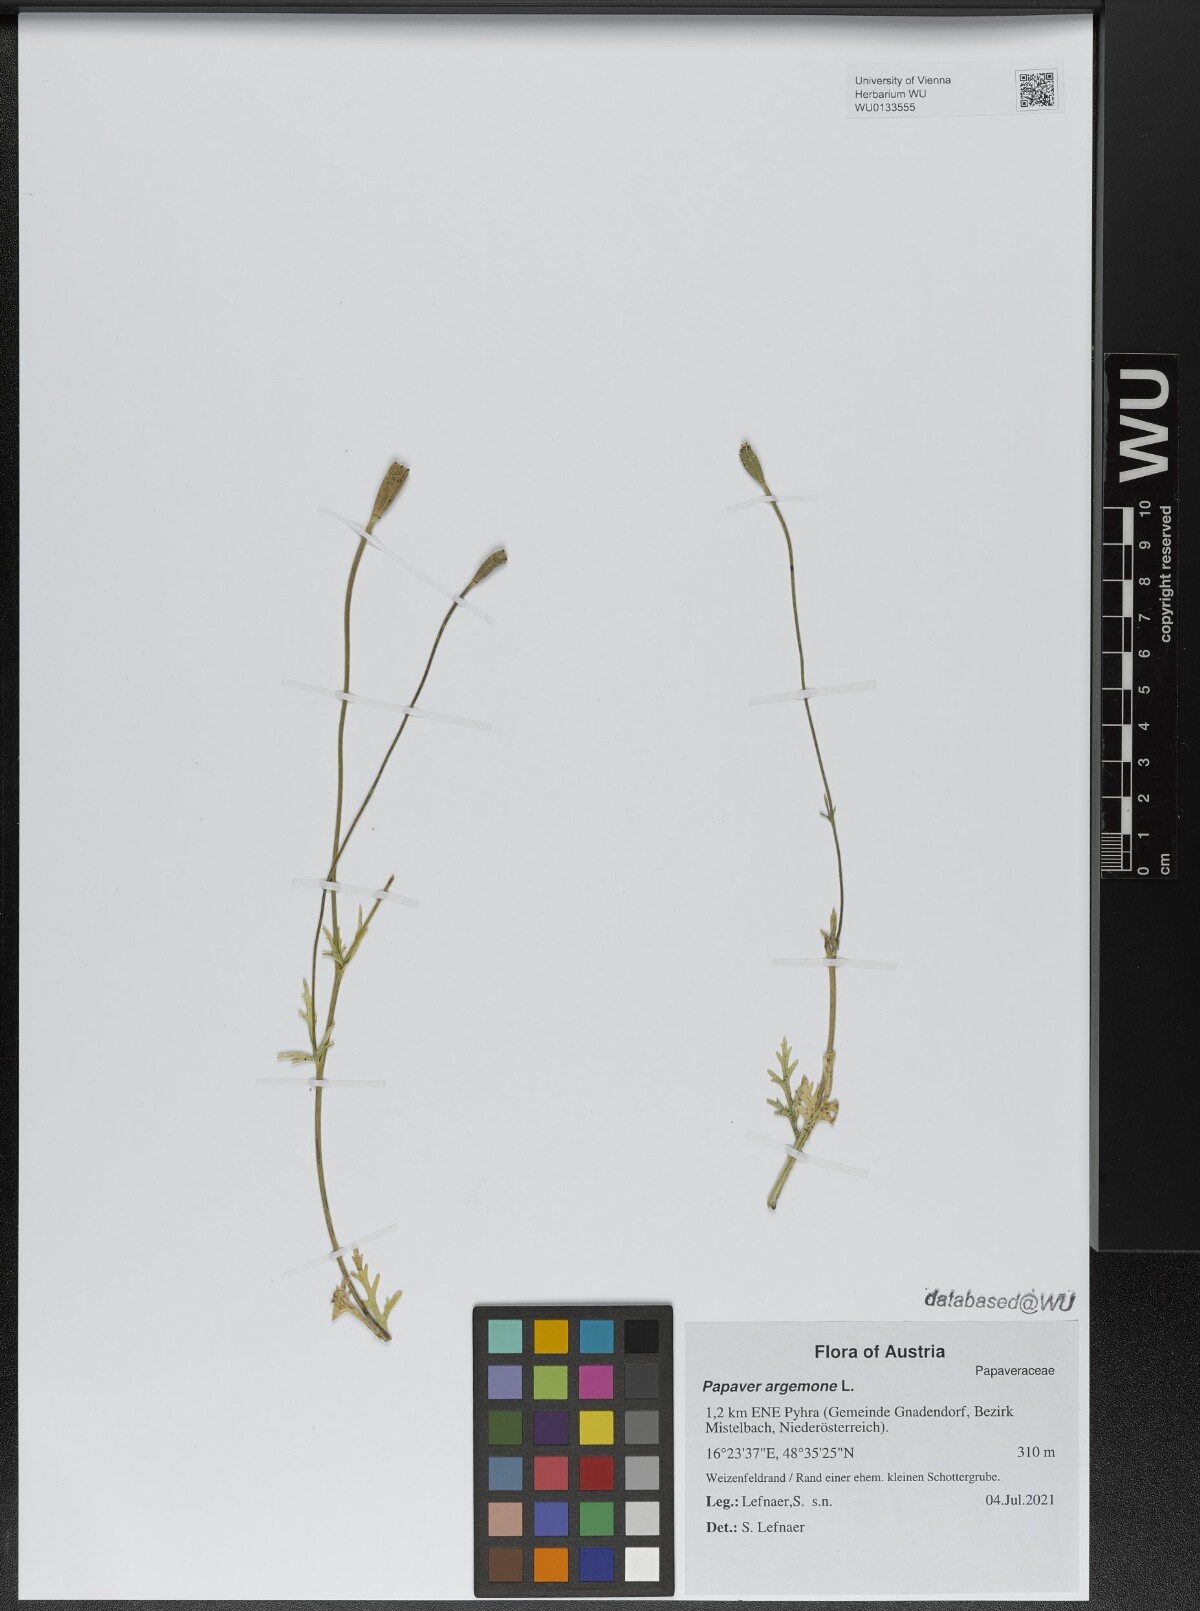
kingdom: Plantae
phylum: Tracheophyta
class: Magnoliopsida
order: Ranunculales
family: Papaveraceae
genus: Roemeria
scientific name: Roemeria argemone
